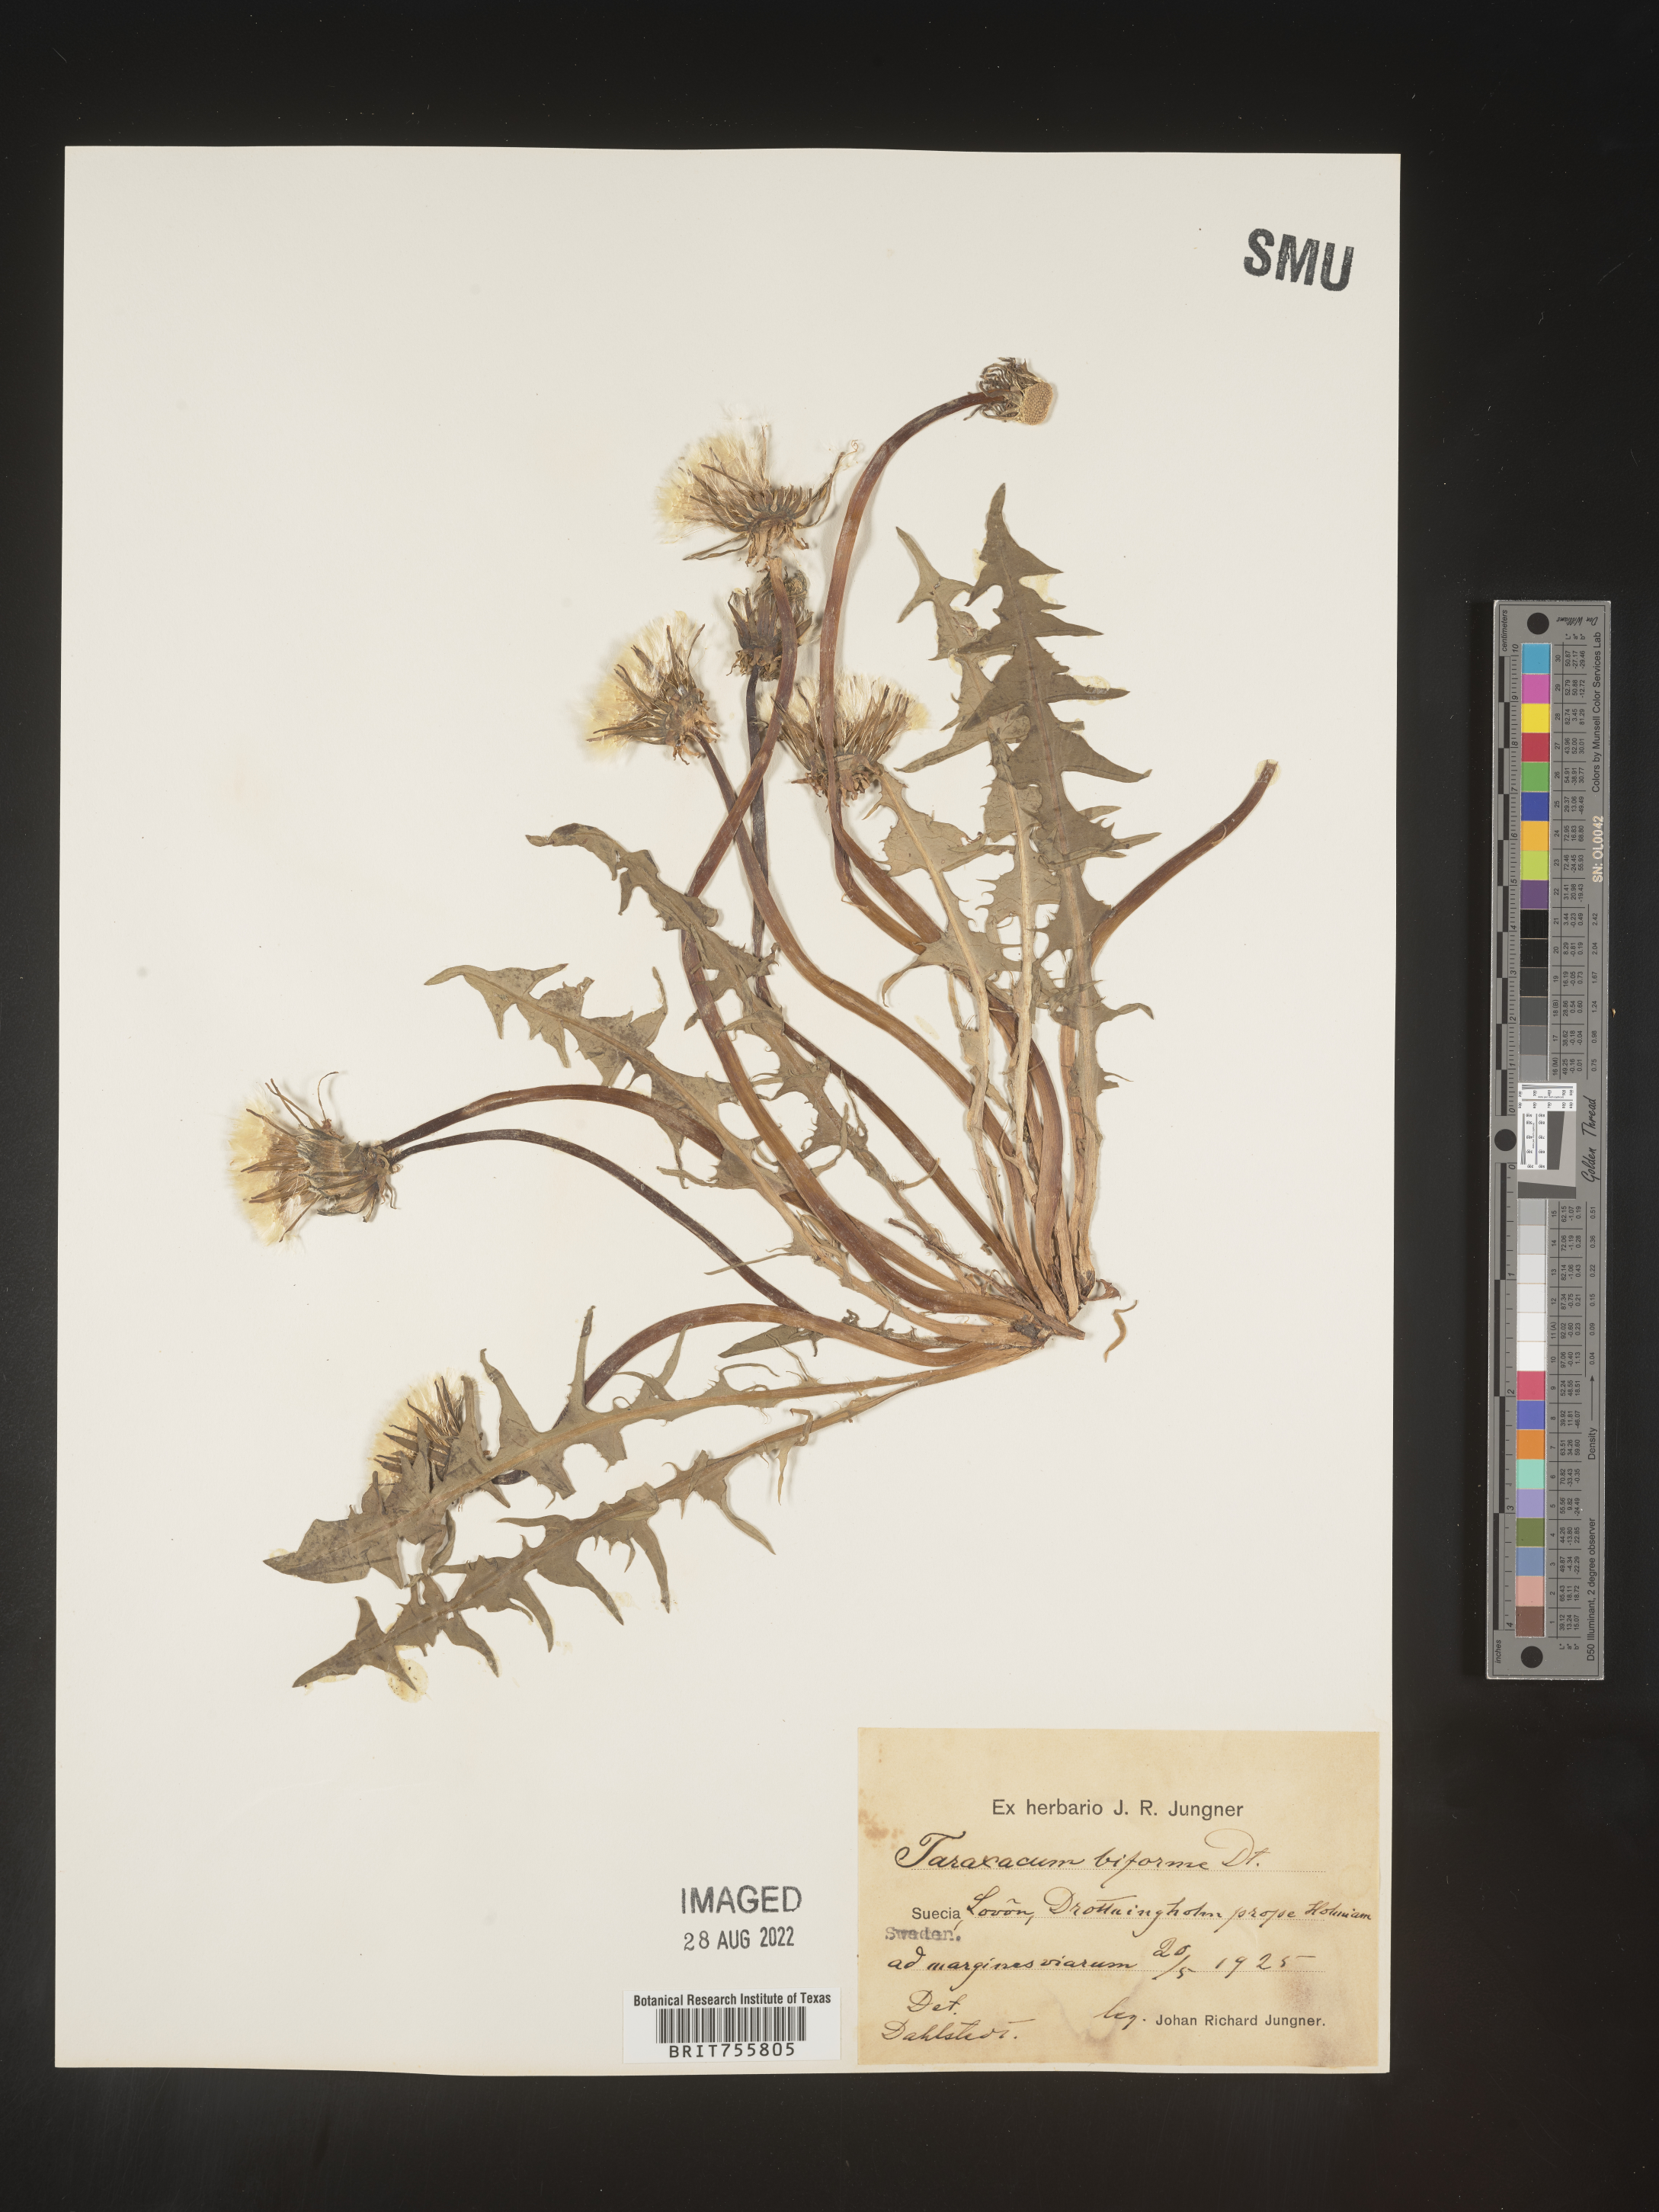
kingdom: Plantae
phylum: Tracheophyta
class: Magnoliopsida
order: Asterales
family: Asteraceae
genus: Taraxacum
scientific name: Taraxacum
